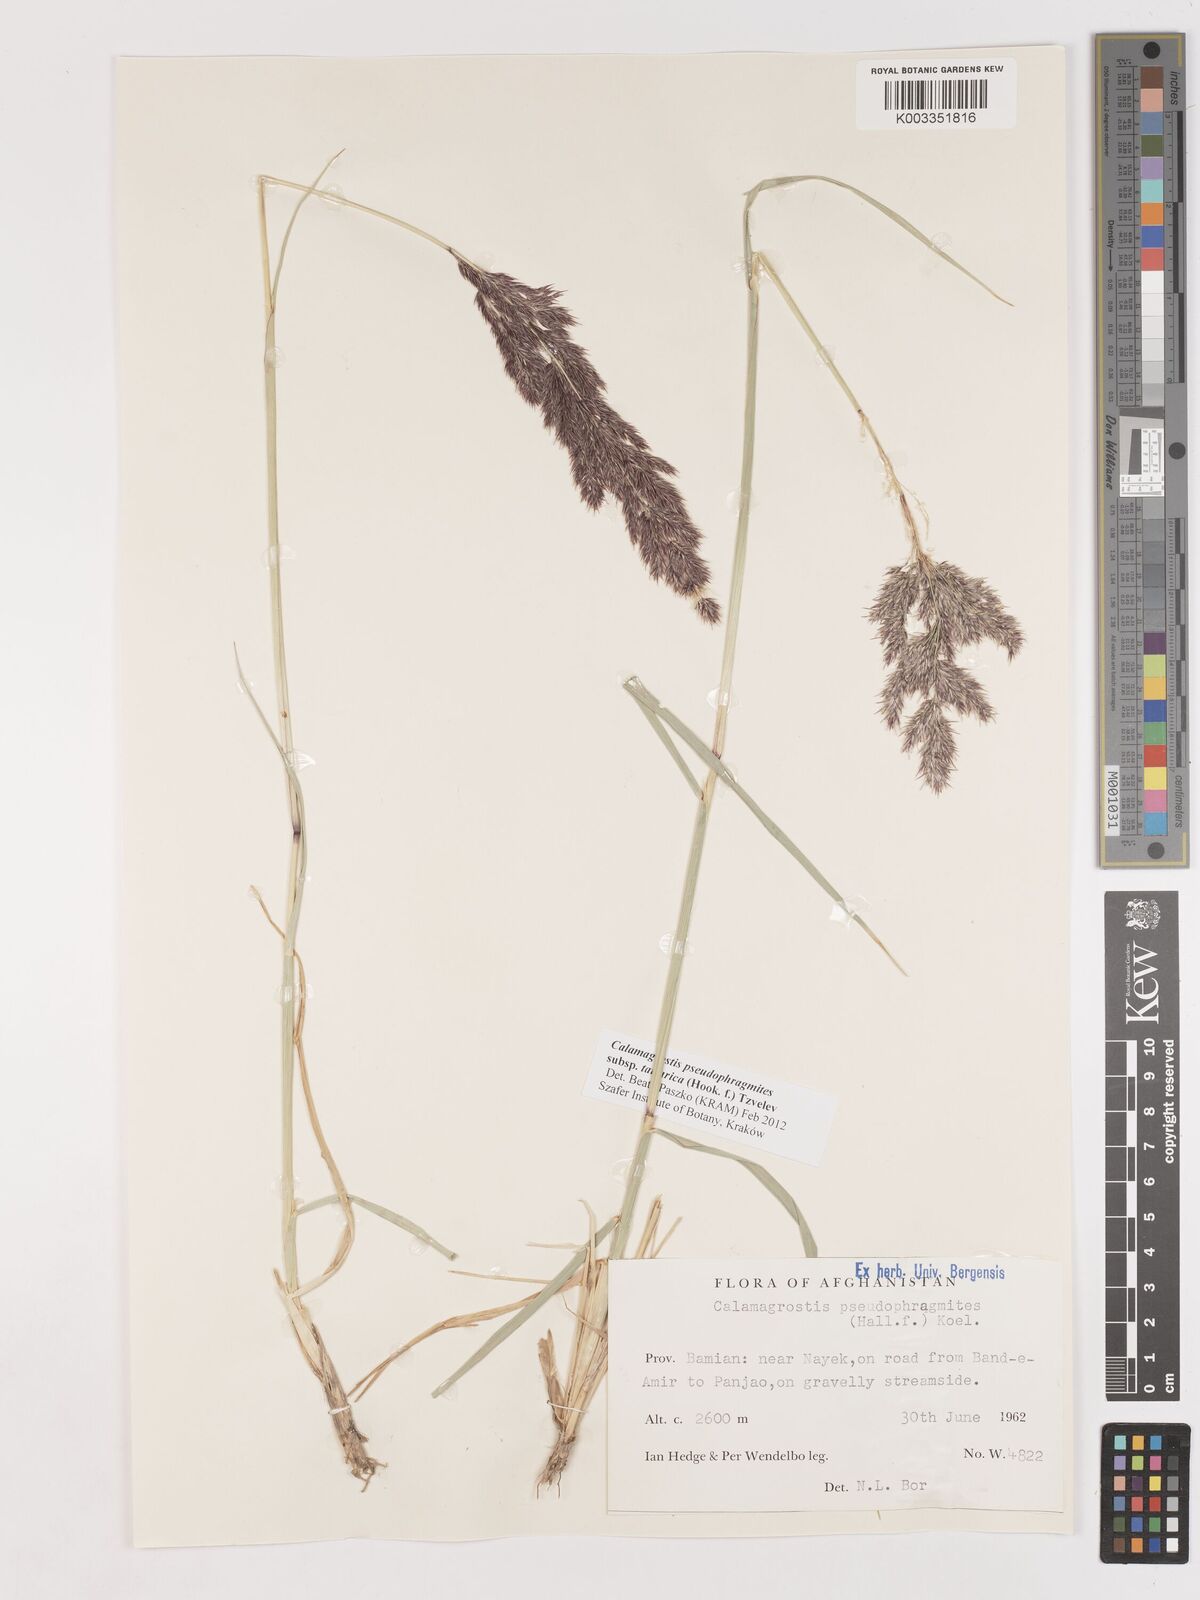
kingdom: Plantae
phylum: Tracheophyta
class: Liliopsida
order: Poales
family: Poaceae
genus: Calamagrostis
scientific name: Calamagrostis pseudophragmites
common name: Coastal small-reed
